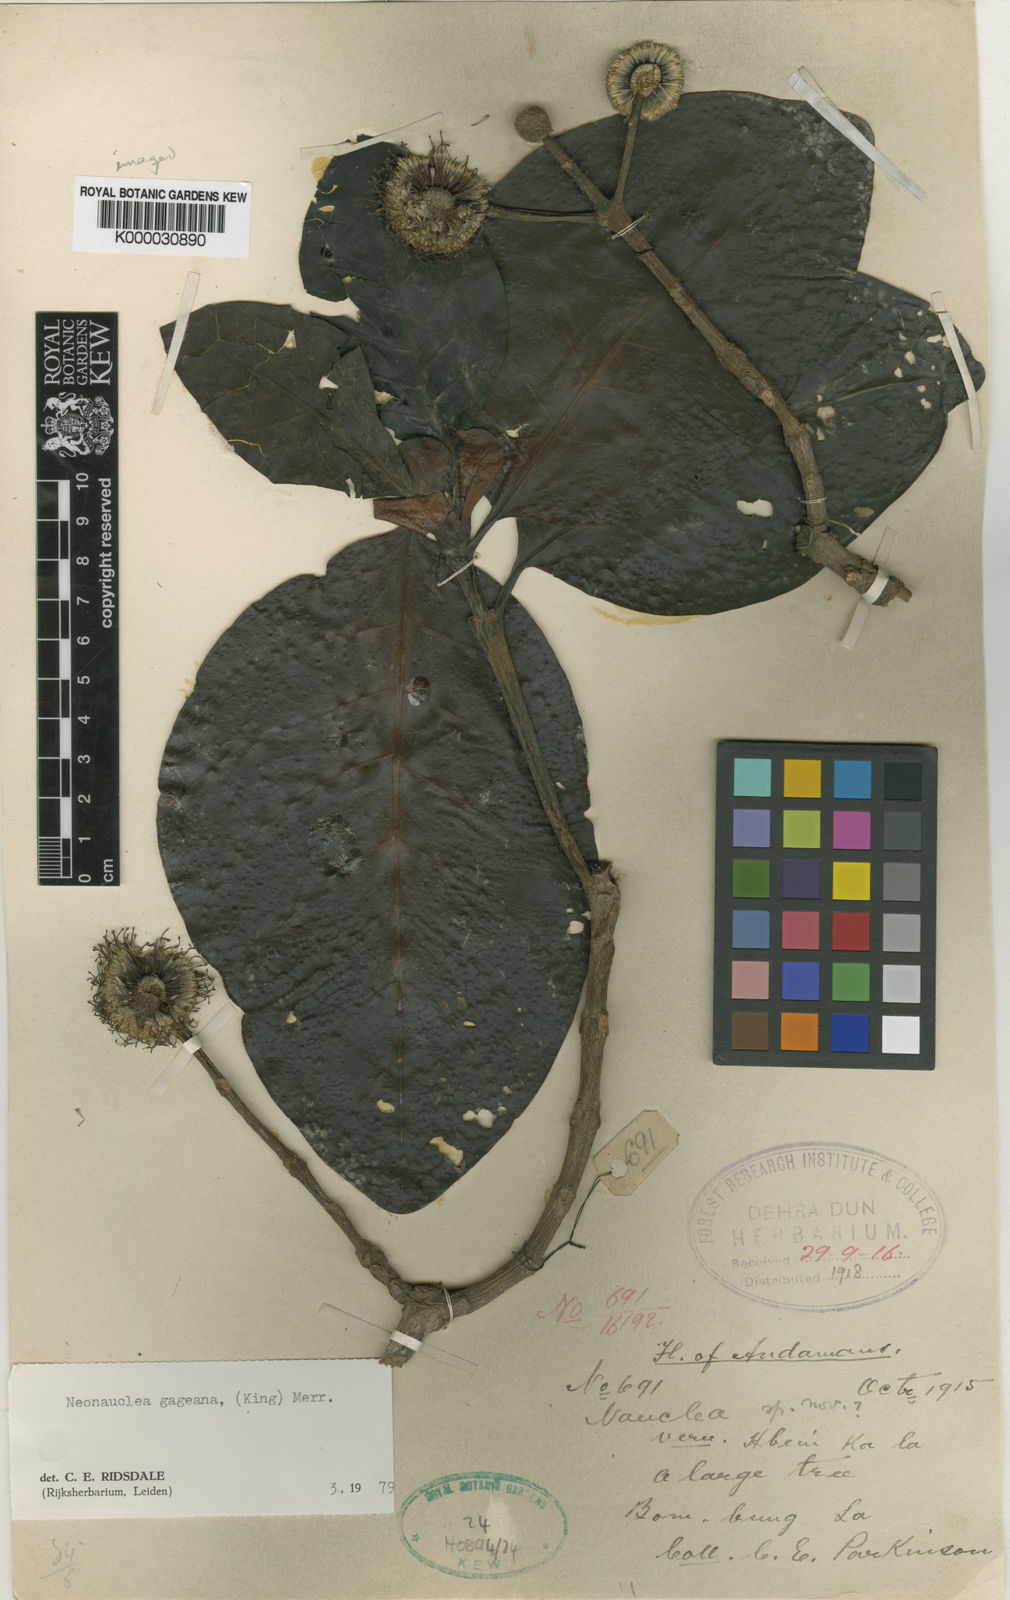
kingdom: Plantae
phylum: Tracheophyta
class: Magnoliopsida
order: Gentianales
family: Rubiaceae
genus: Neonauclea
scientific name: Neonauclea gageana
